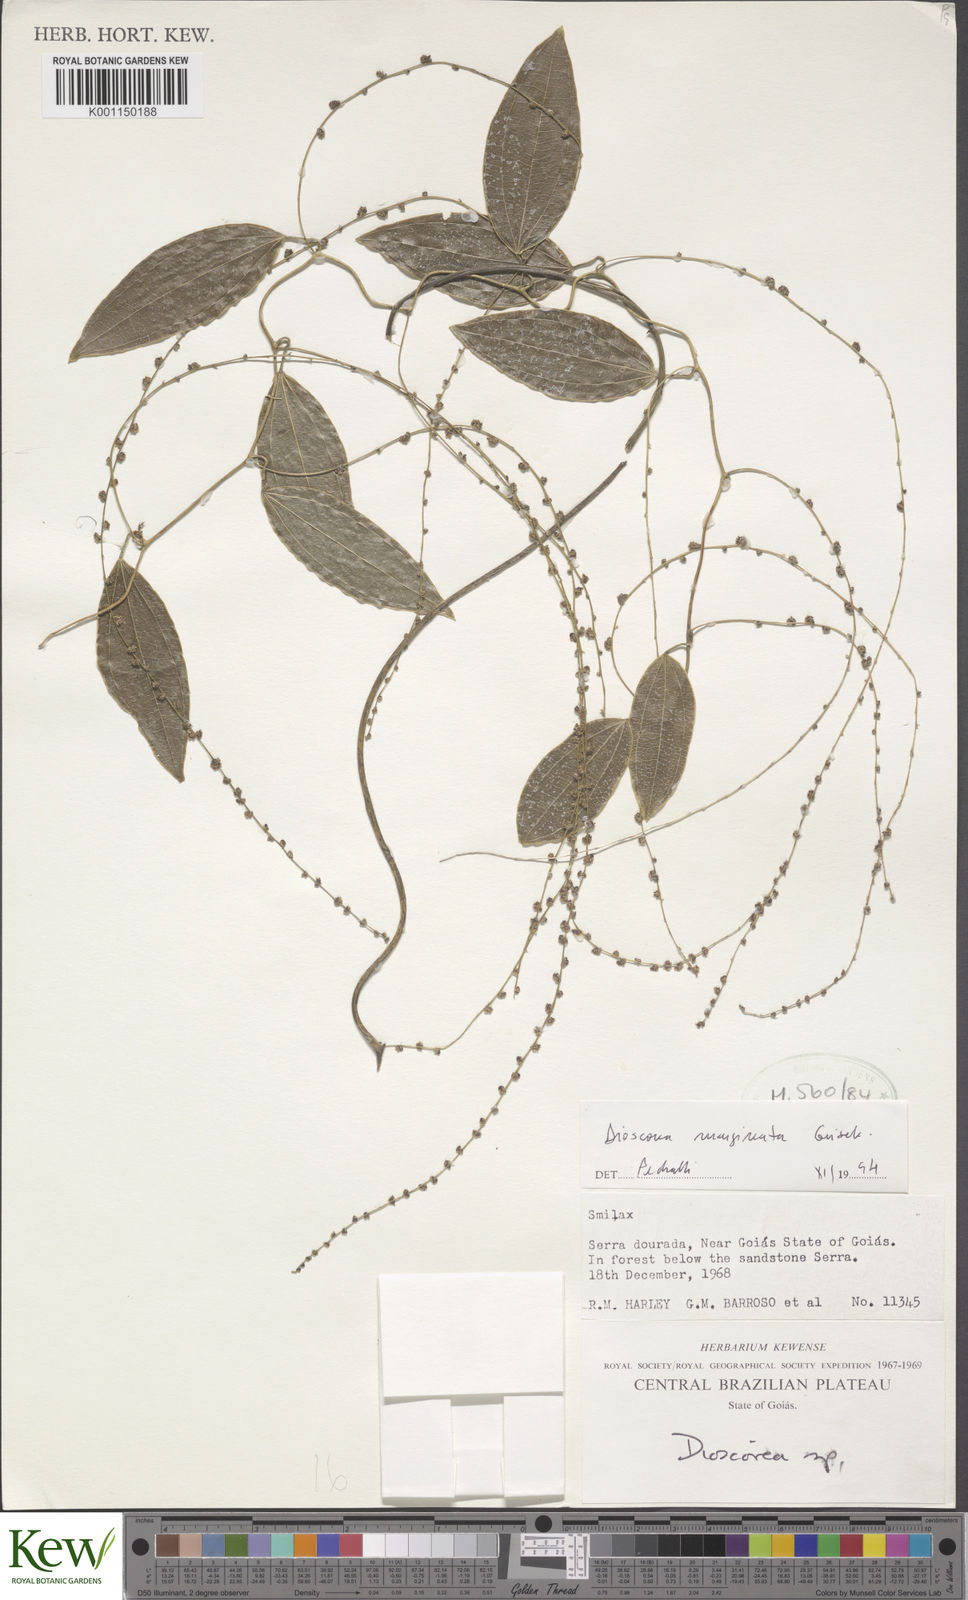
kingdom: Plantae
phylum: Tracheophyta
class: Liliopsida
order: Dioscoreales
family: Dioscoreaceae
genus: Dioscorea
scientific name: Dioscorea
